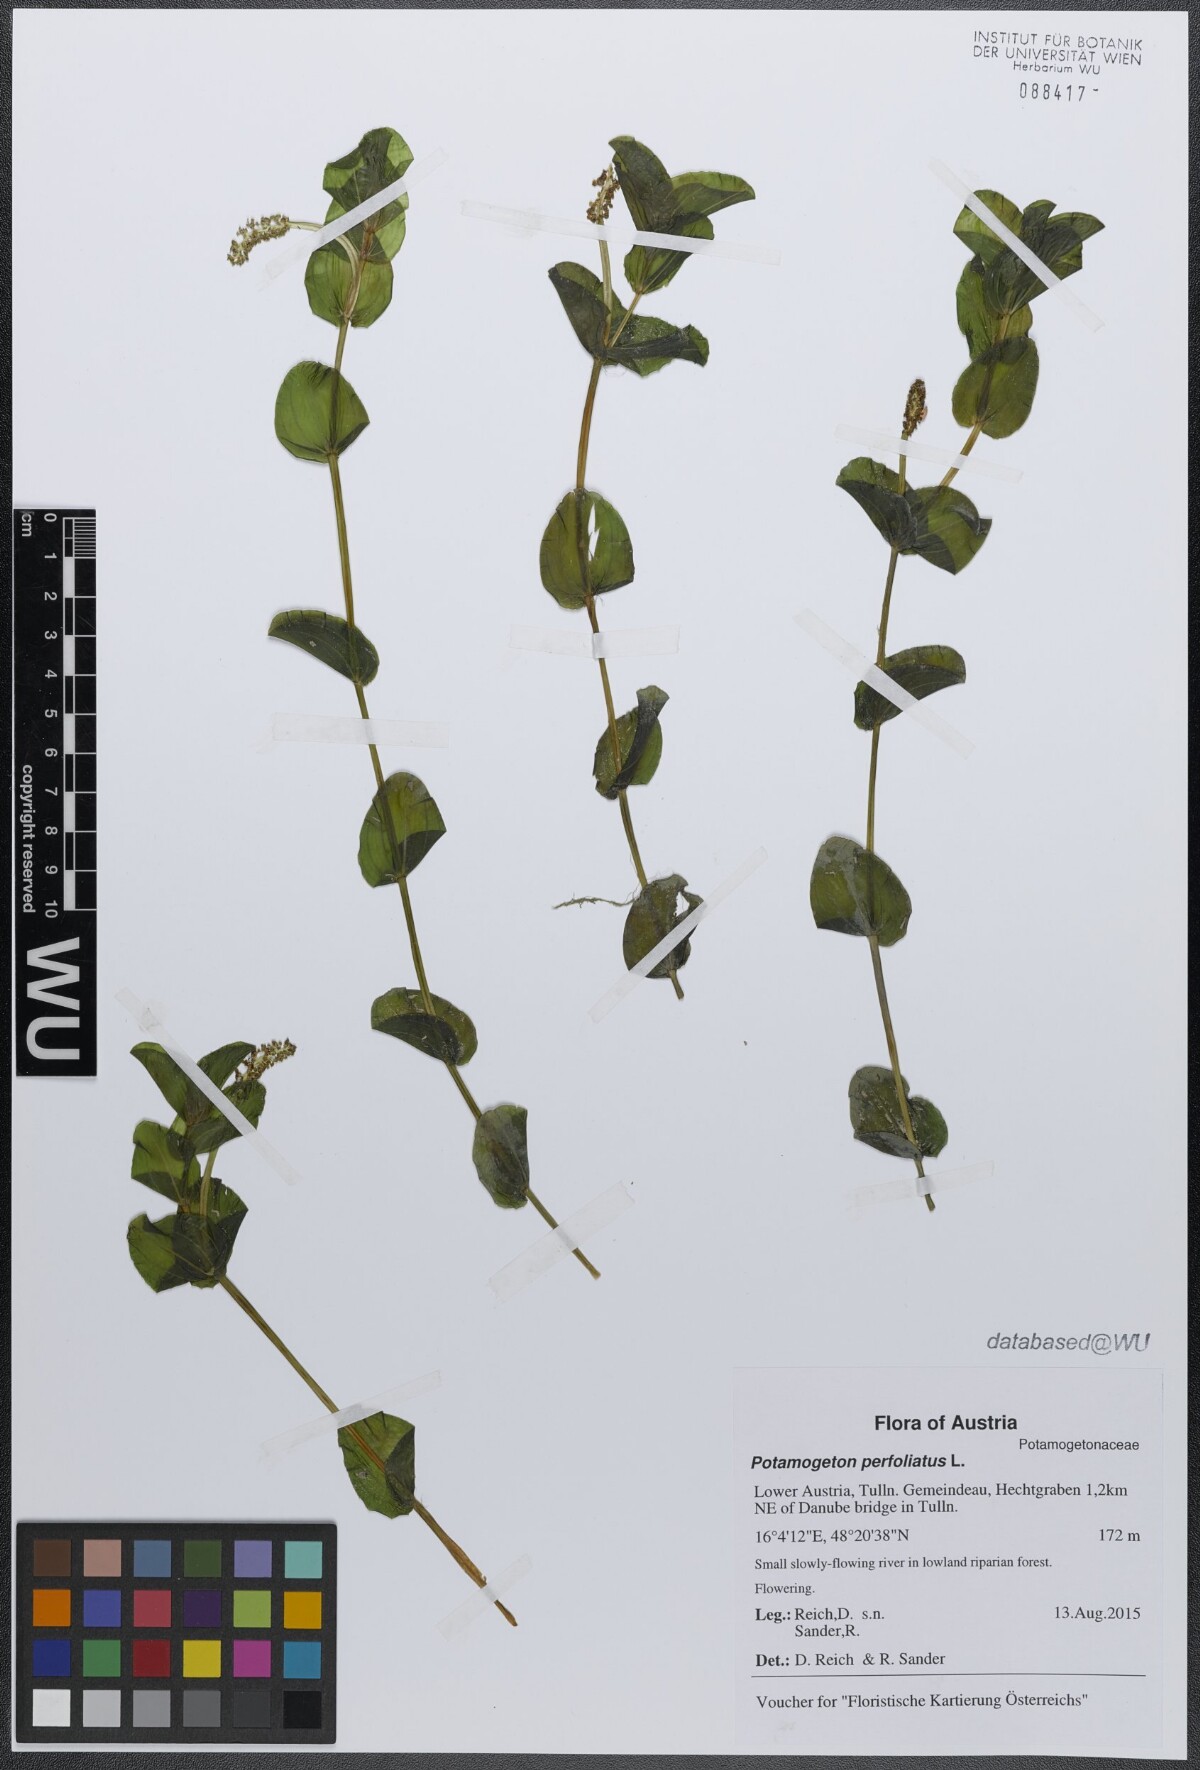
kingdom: Plantae
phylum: Tracheophyta
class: Liliopsida
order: Alismatales
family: Potamogetonaceae
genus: Potamogeton
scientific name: Potamogeton perfoliatus
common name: Perfoliate pondweed
